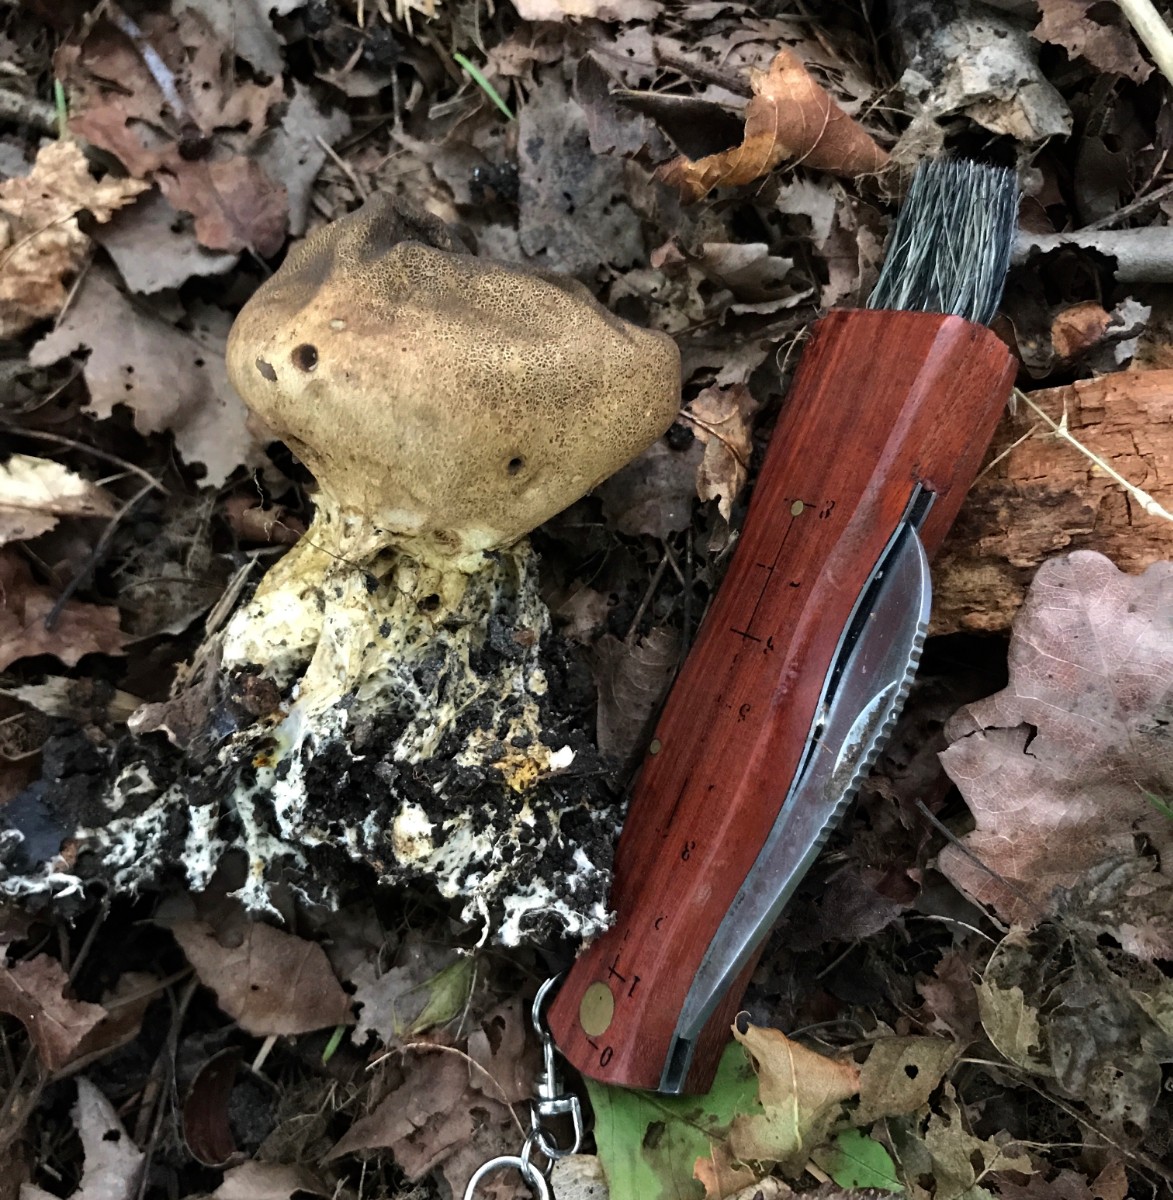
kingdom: Fungi
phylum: Basidiomycota
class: Agaricomycetes
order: Boletales
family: Sclerodermataceae
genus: Scleroderma
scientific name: Scleroderma verrucosum
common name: stilket bruskbold
